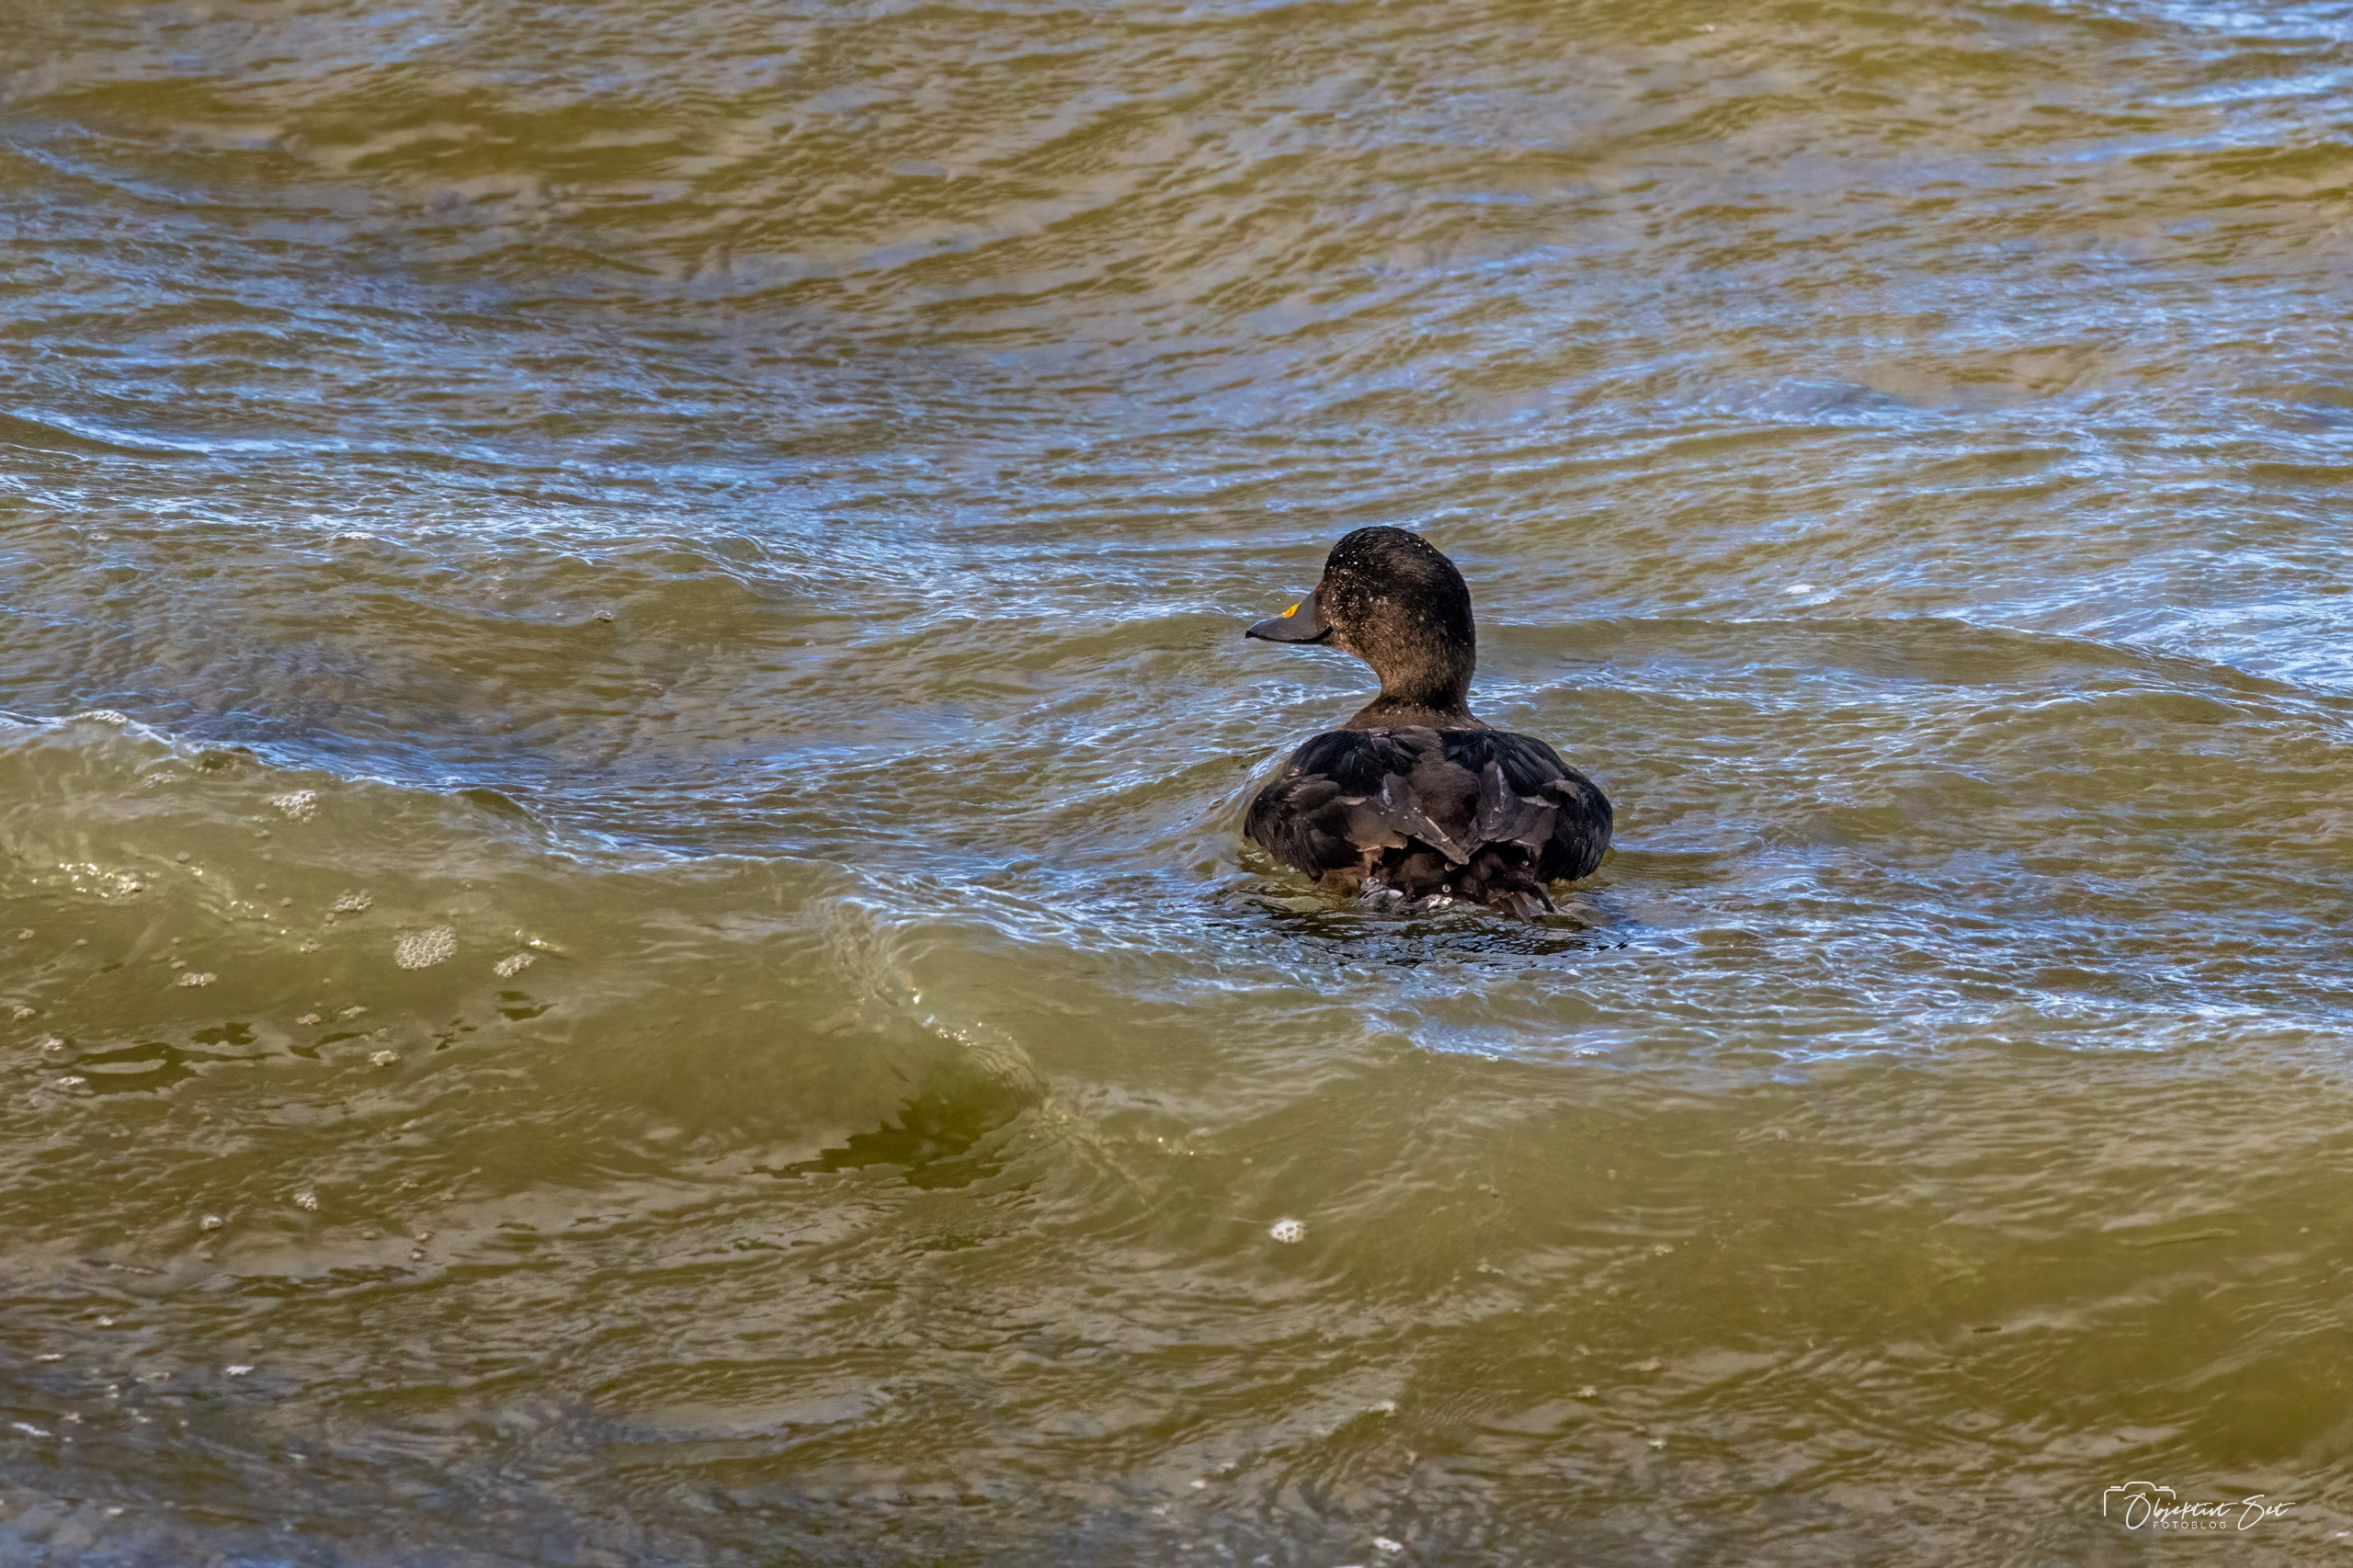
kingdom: Animalia
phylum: Chordata
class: Aves
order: Anseriformes
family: Anatidae
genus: Melanitta
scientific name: Melanitta nigra
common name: Sortand
